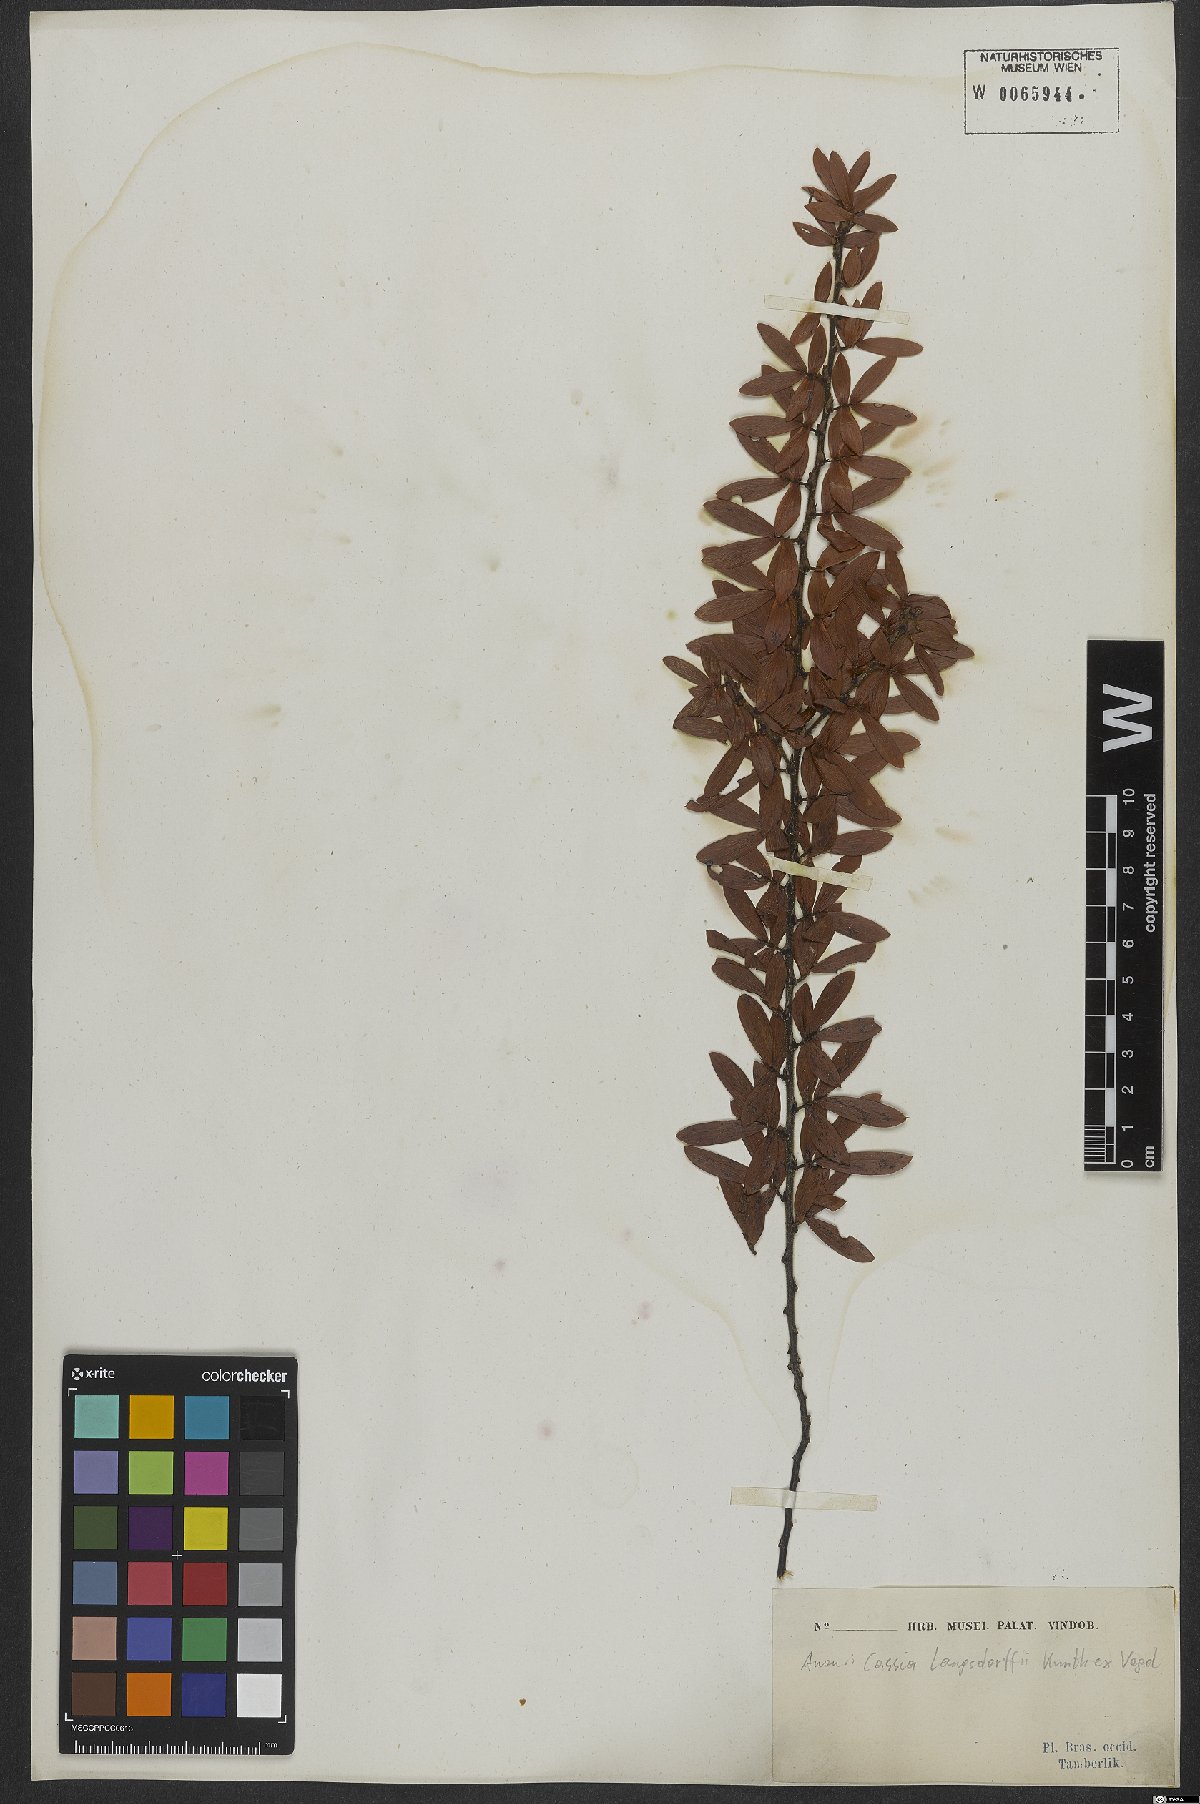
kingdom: Plantae
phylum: Tracheophyta
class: Magnoliopsida
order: Fabales
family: Fabaceae
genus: Chamaecrista
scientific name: Chamaecrista langsdorffii
